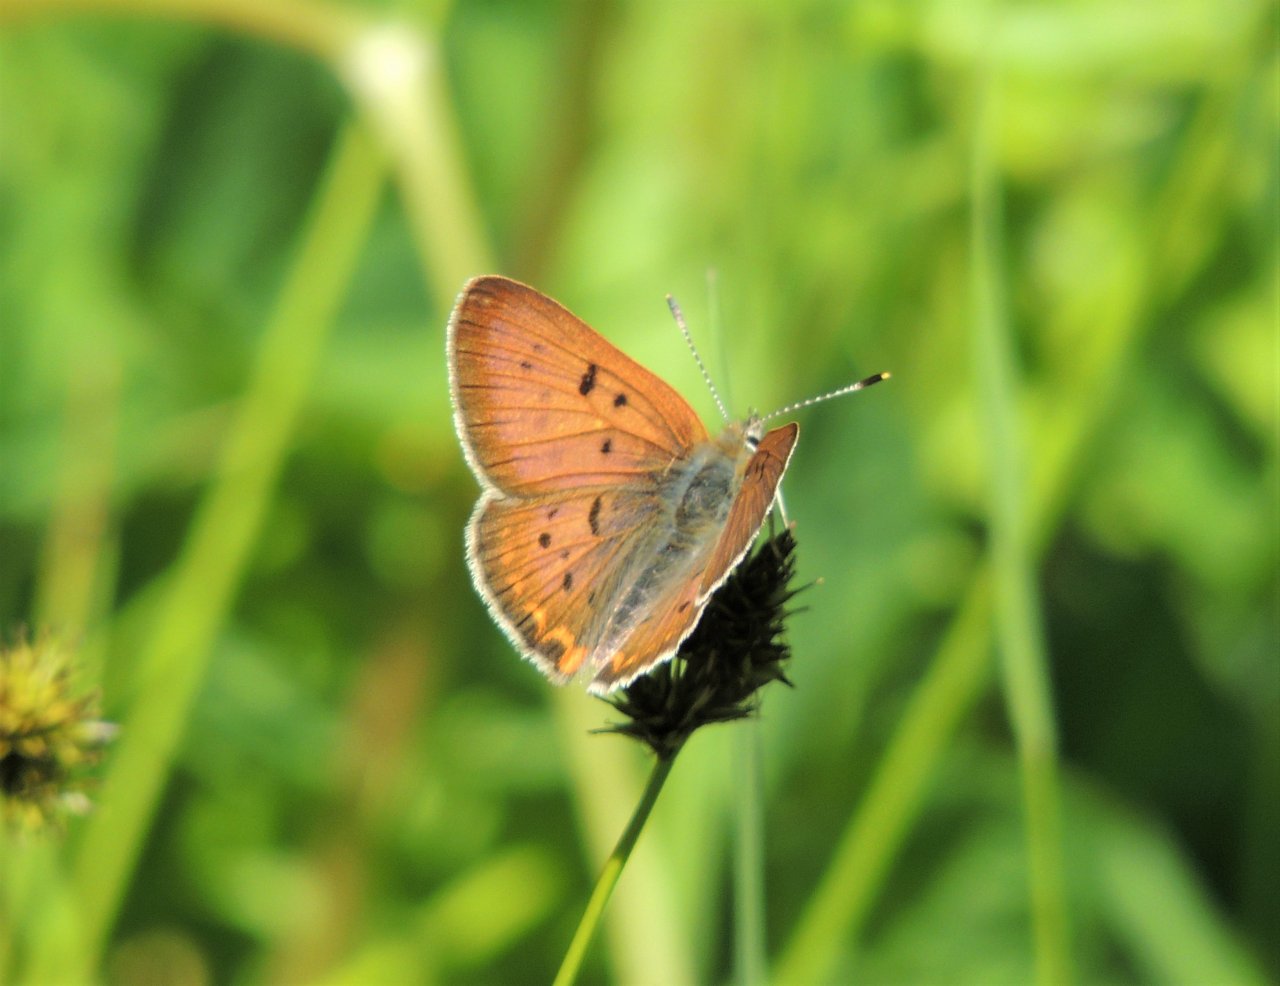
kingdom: Animalia
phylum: Arthropoda
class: Insecta
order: Lepidoptera
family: Sesiidae
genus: Sesia
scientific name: Sesia Lycaena helloides
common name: Purplish Copper
